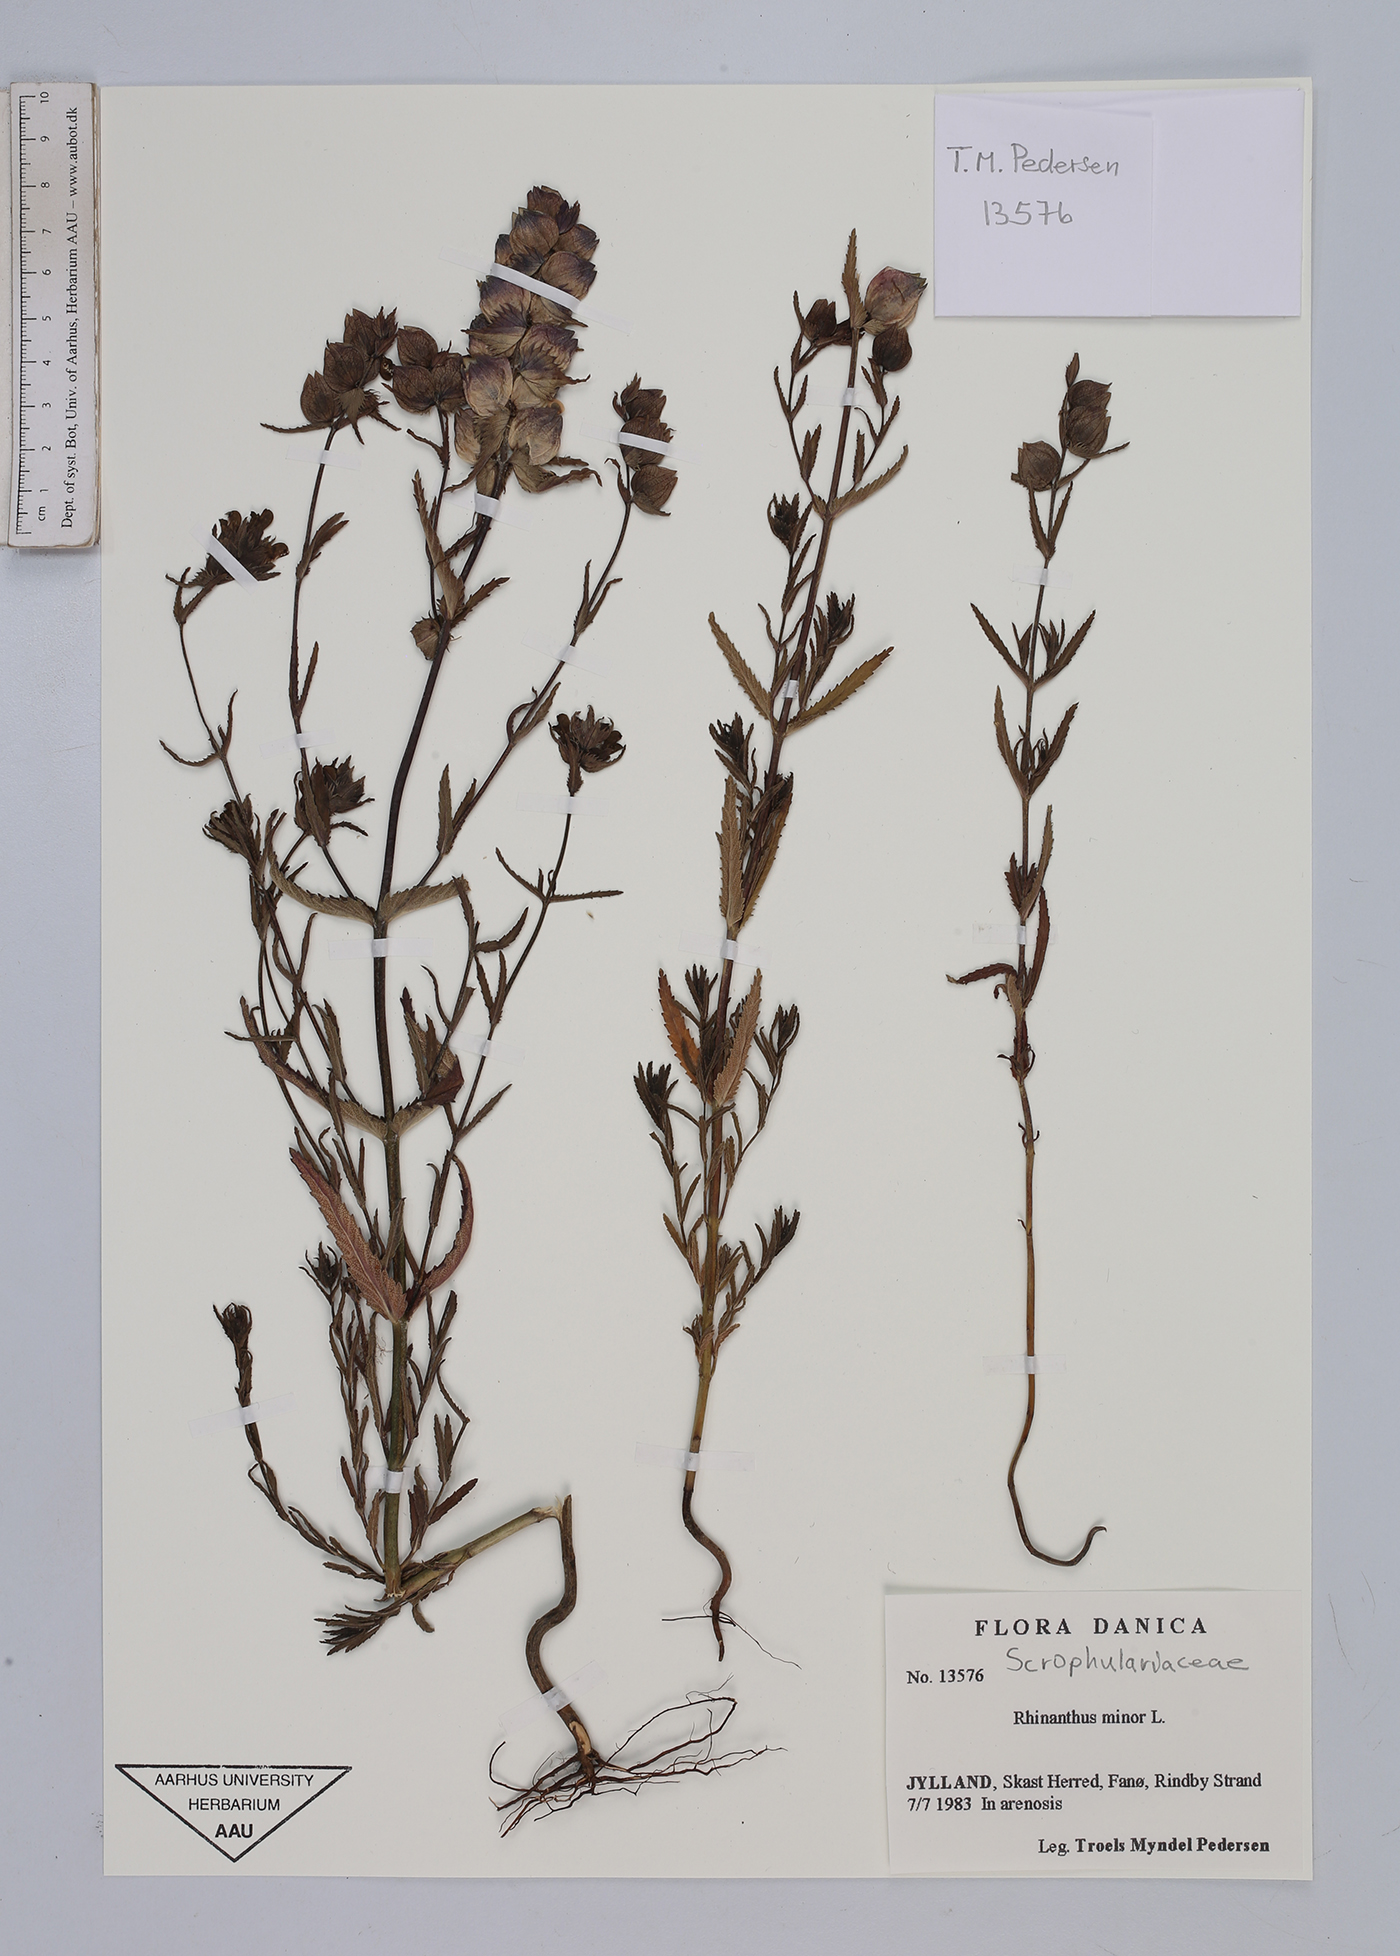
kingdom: Plantae
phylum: Tracheophyta
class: Magnoliopsida
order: Lamiales
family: Orobanchaceae
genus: Rhinanthus
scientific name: Rhinanthus minor
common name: Yellow-rattle
